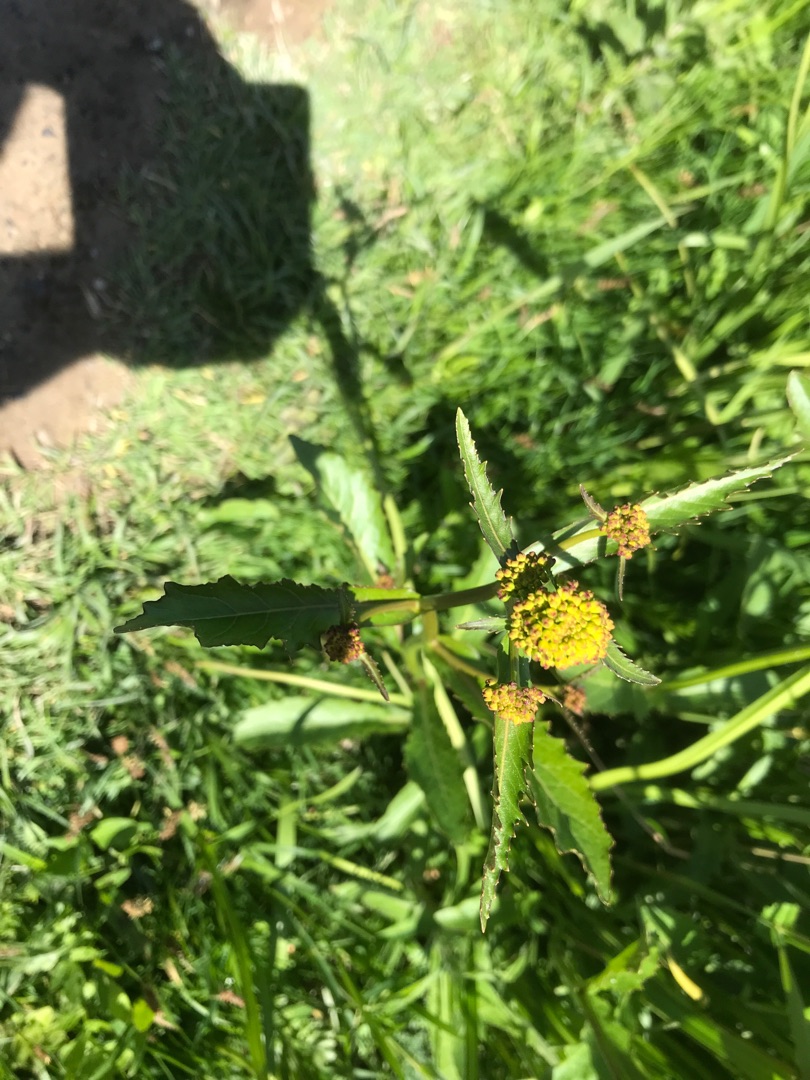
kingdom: Plantae
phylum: Tracheophyta
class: Magnoliopsida
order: Brassicales
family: Brassicaceae
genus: Rorippa
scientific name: Rorippa amphibia
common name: Vandpeberrod
